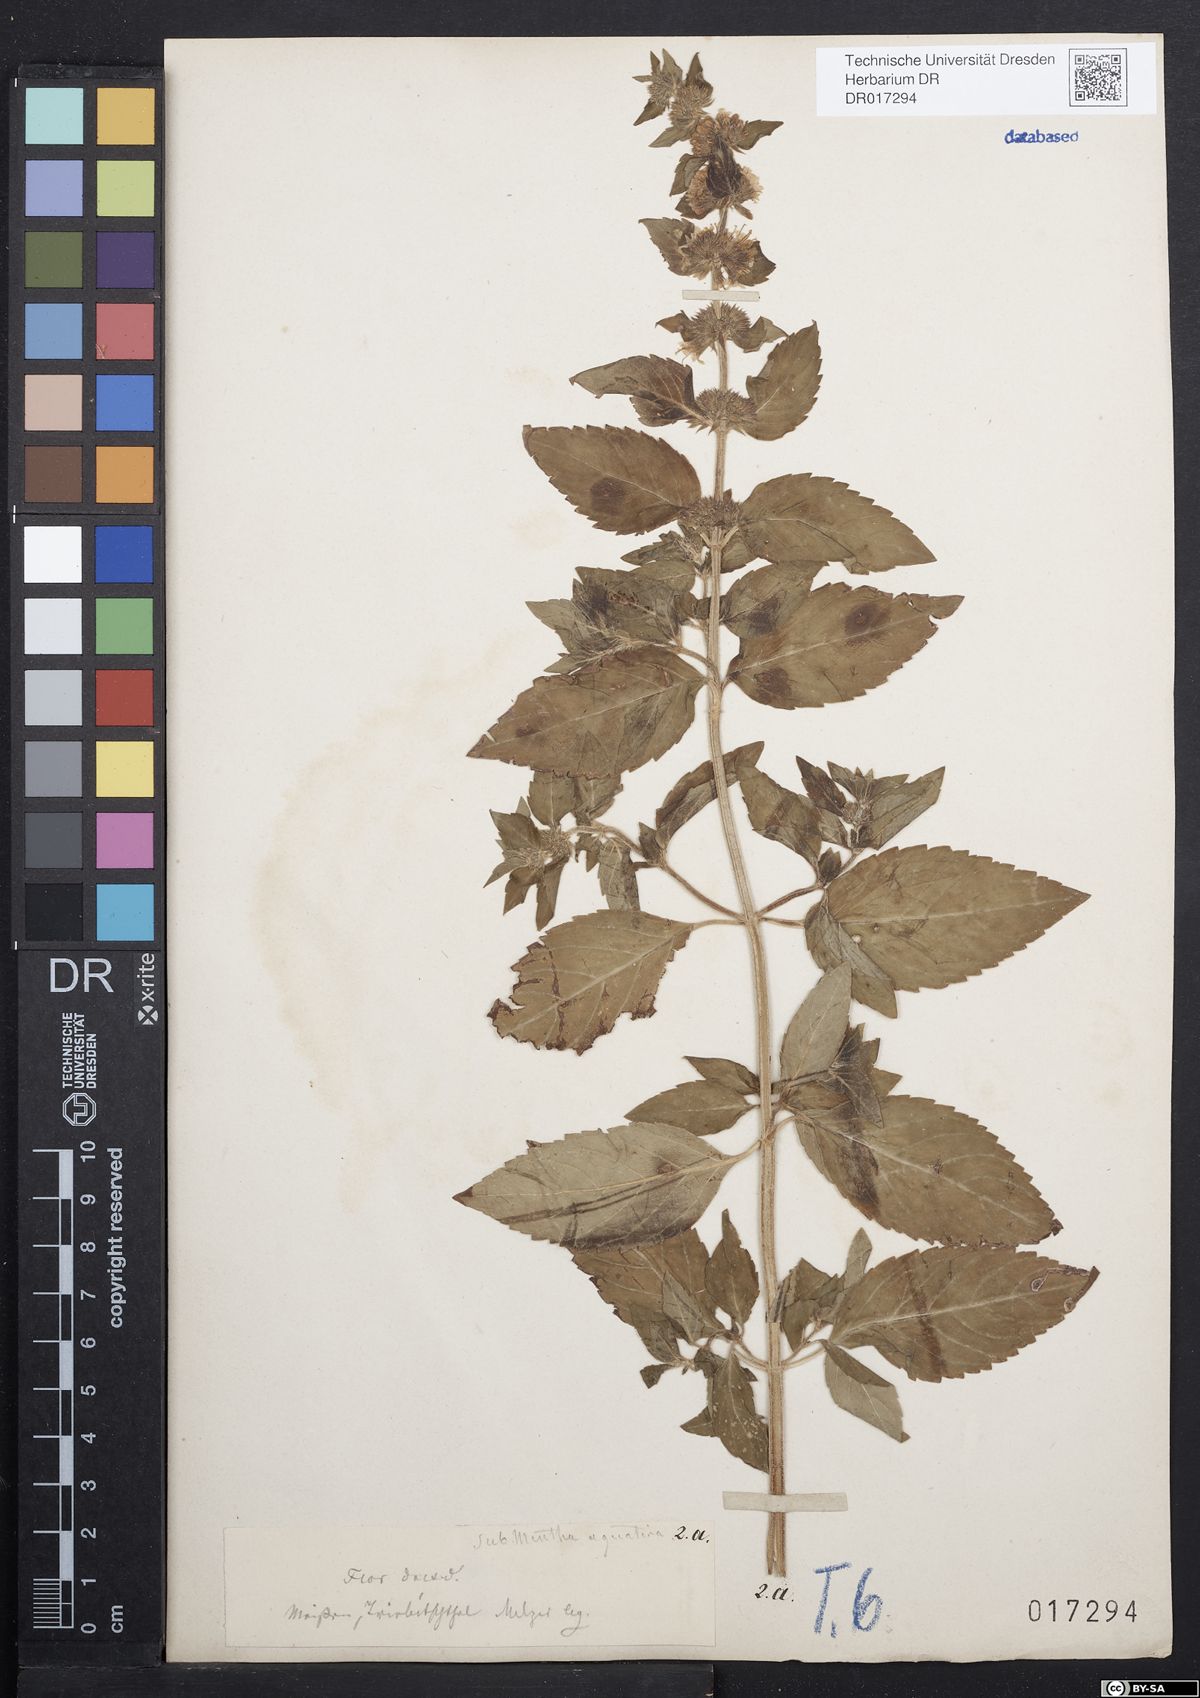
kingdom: Plantae
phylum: Tracheophyta
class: Magnoliopsida
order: Lamiales
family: Lamiaceae
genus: Mentha
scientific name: Mentha verticillata
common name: Mint
